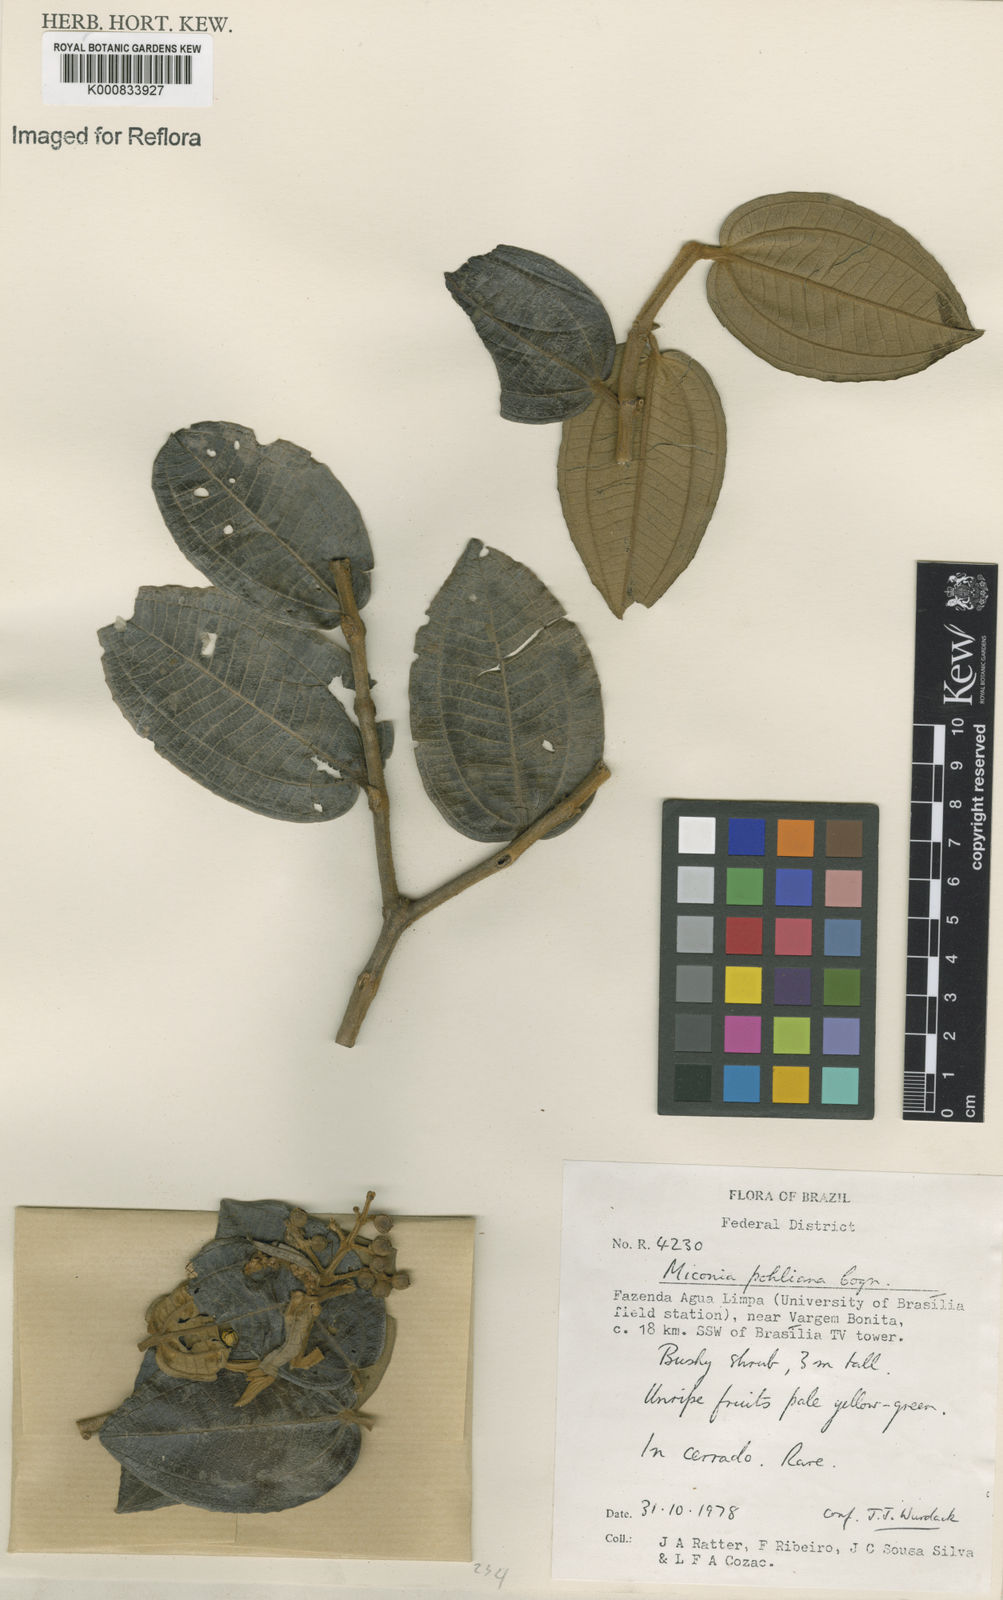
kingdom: Plantae
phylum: Tracheophyta
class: Magnoliopsida
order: Myrtales
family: Melastomataceae
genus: Miconia
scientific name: Miconia leucocarpa
